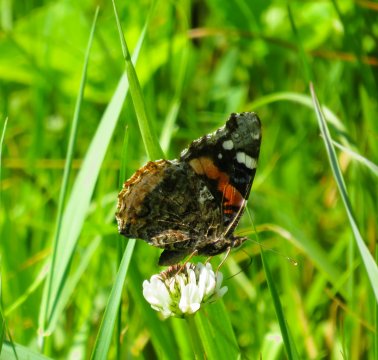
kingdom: Animalia
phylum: Arthropoda
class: Insecta
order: Lepidoptera
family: Nymphalidae
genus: Vanessa
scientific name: Vanessa atalanta
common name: Red Admiral
